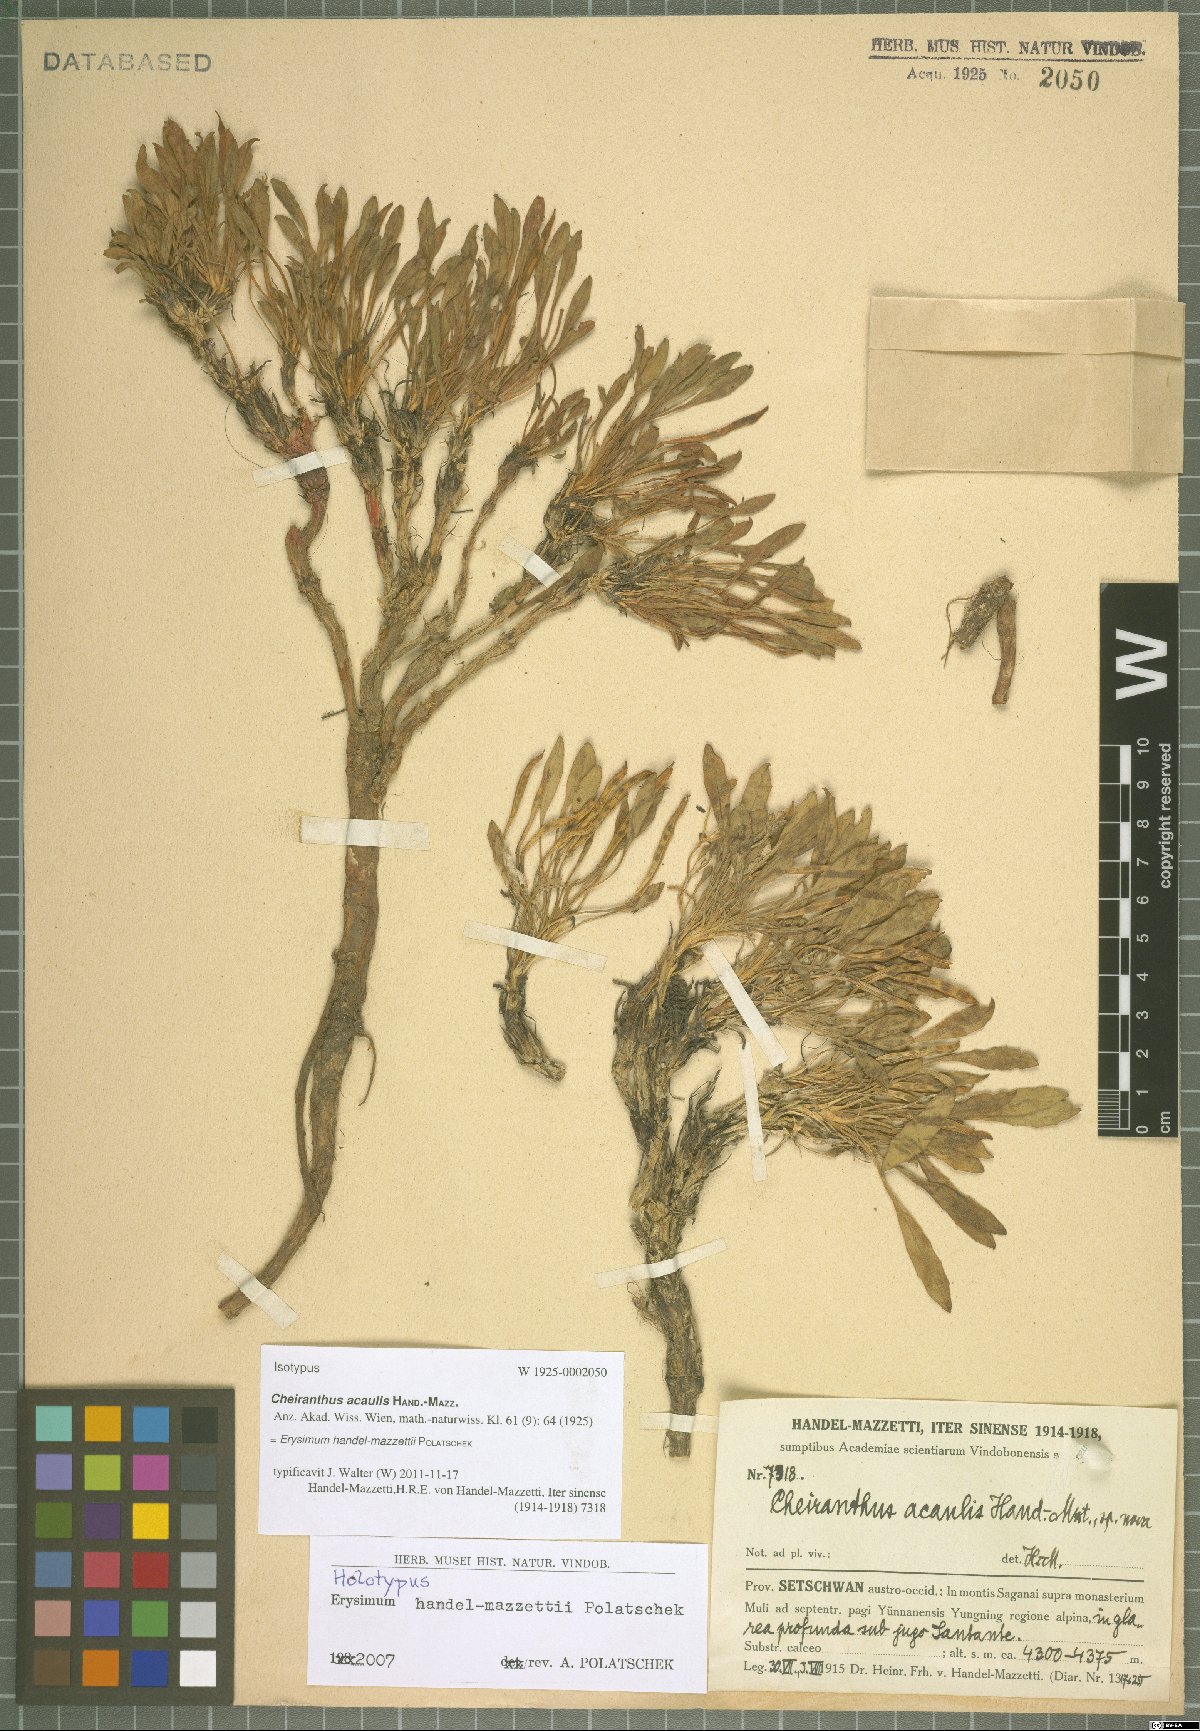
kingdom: Plantae
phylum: Tracheophyta
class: Magnoliopsida
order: Brassicales
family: Brassicaceae
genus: Erysimum
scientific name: Erysimum handel-mazzettii
